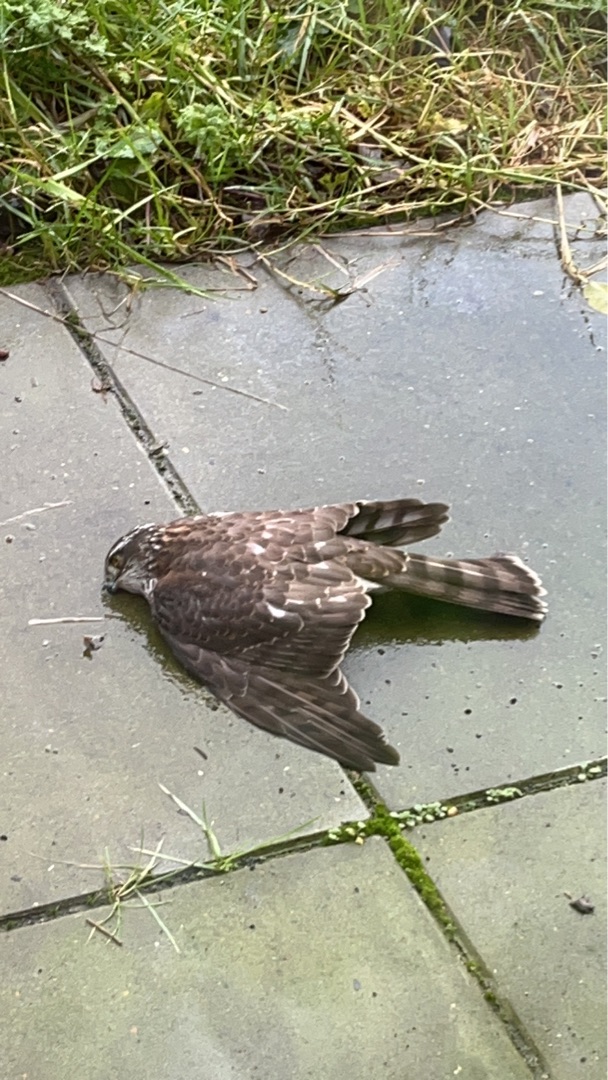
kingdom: Animalia
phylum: Chordata
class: Aves
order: Accipitriformes
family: Accipitridae
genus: Accipiter
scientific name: Accipiter nisus
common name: Spurvehøg
